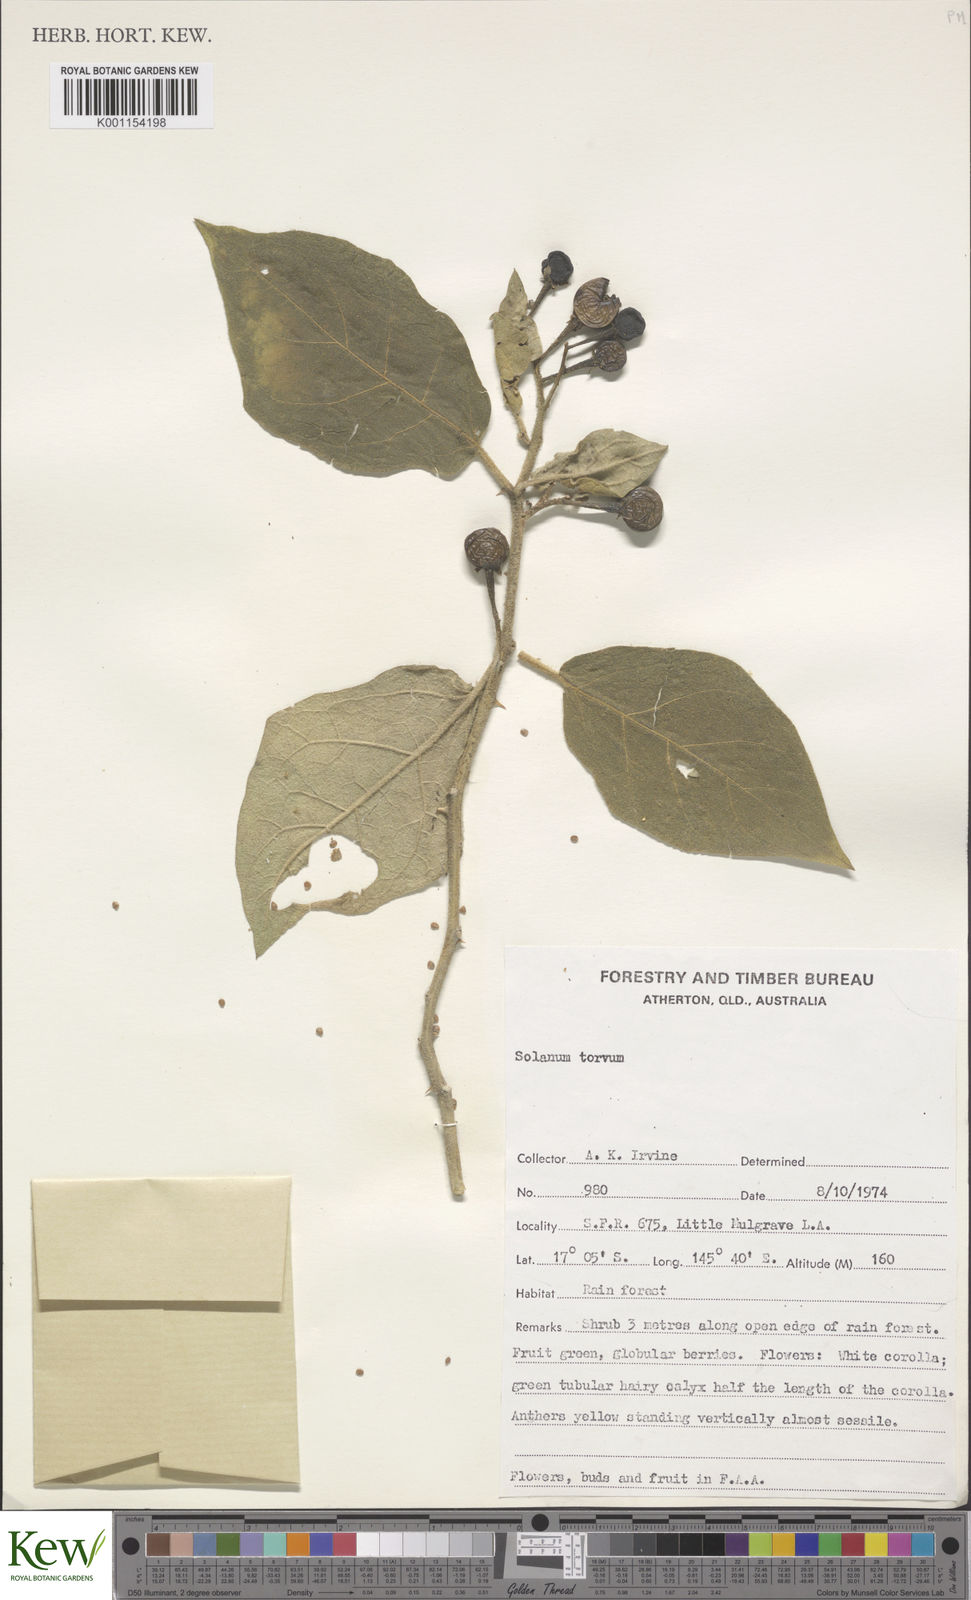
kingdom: Plantae
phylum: Tracheophyta
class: Magnoliopsida
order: Solanales
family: Solanaceae
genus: Solanum
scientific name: Solanum torvum
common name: Turkey berry
